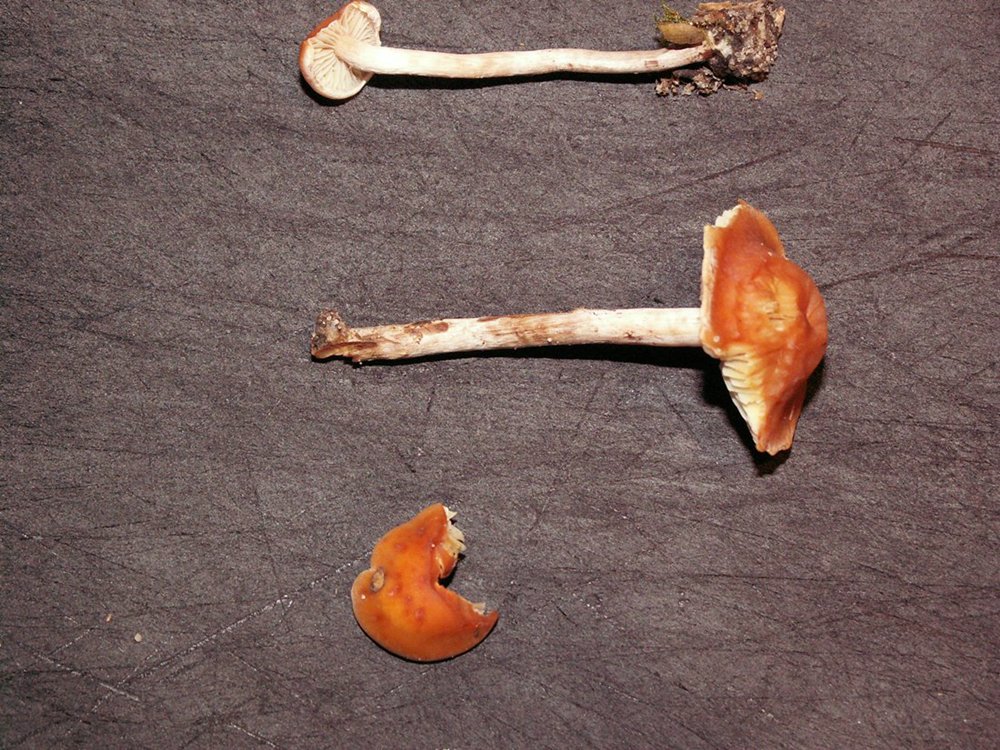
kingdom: Fungi
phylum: Basidiomycota
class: Agaricomycetes
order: Agaricales
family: Strophariaceae
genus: Hypholoma
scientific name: Hypholoma marginatum
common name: enlig svovlhat
